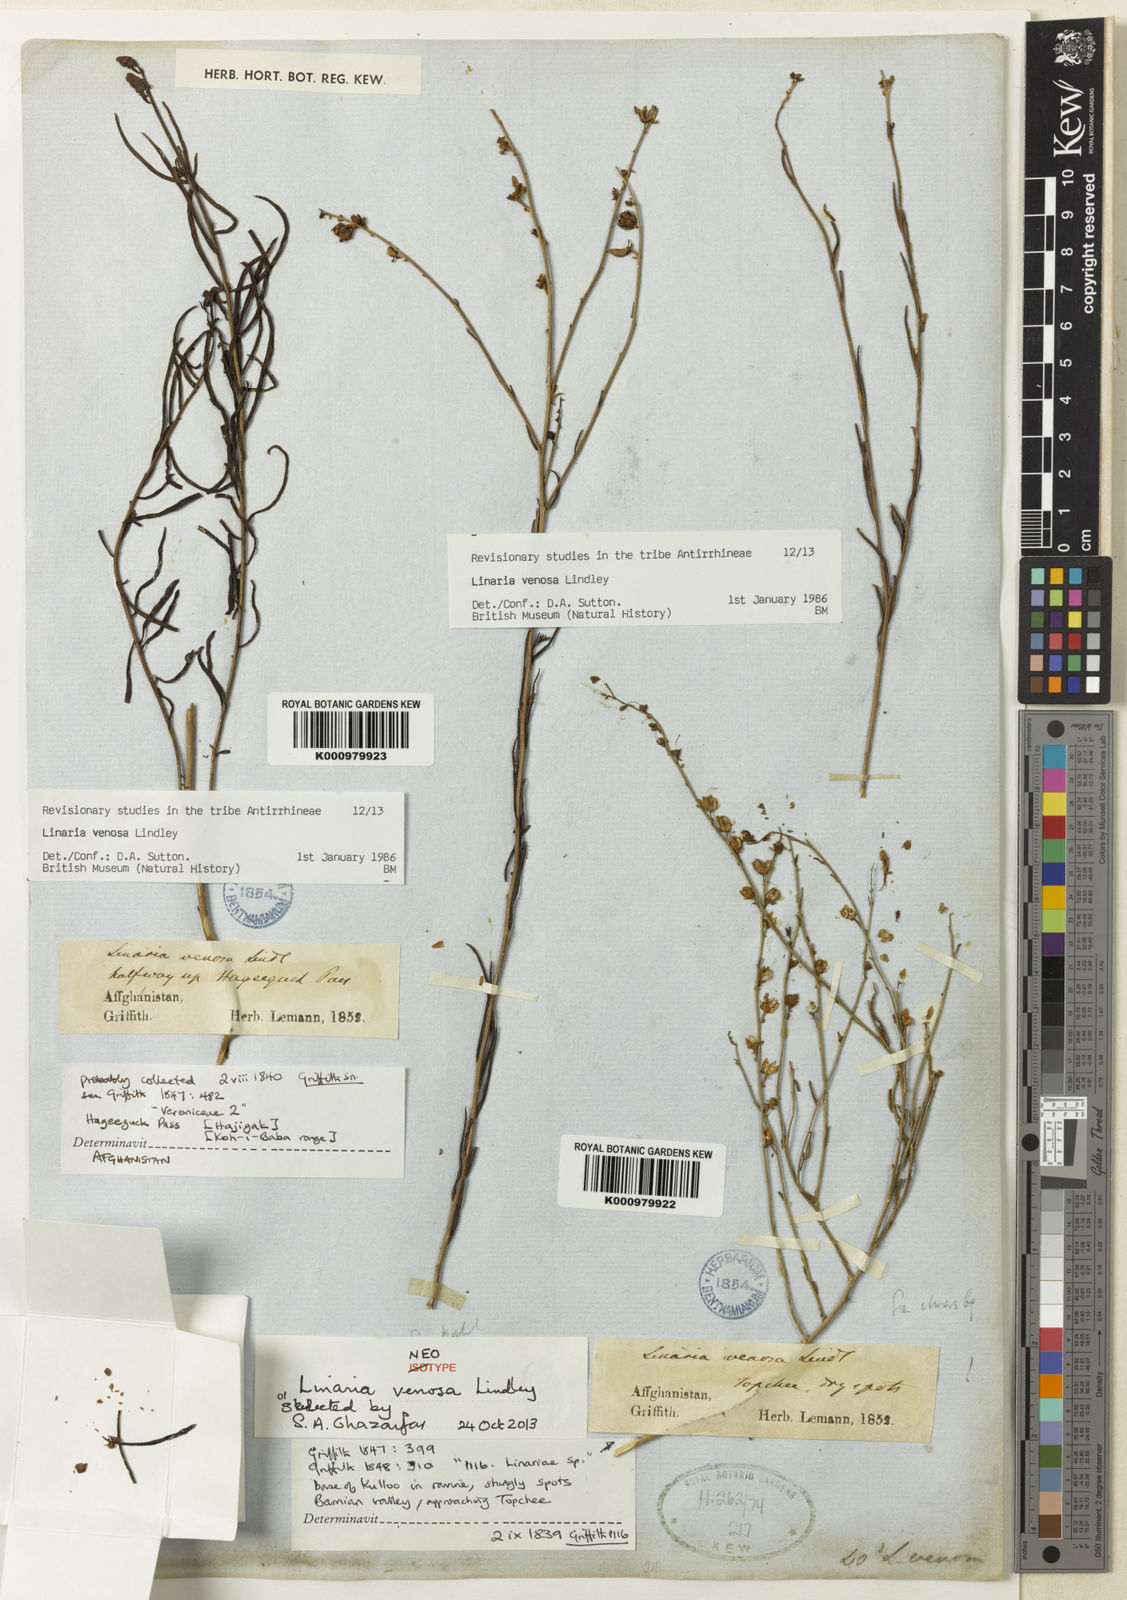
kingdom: Plantae
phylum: Tracheophyta
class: Magnoliopsida
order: Lamiales
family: Plantaginaceae
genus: Linaria
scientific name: Linaria venosa
